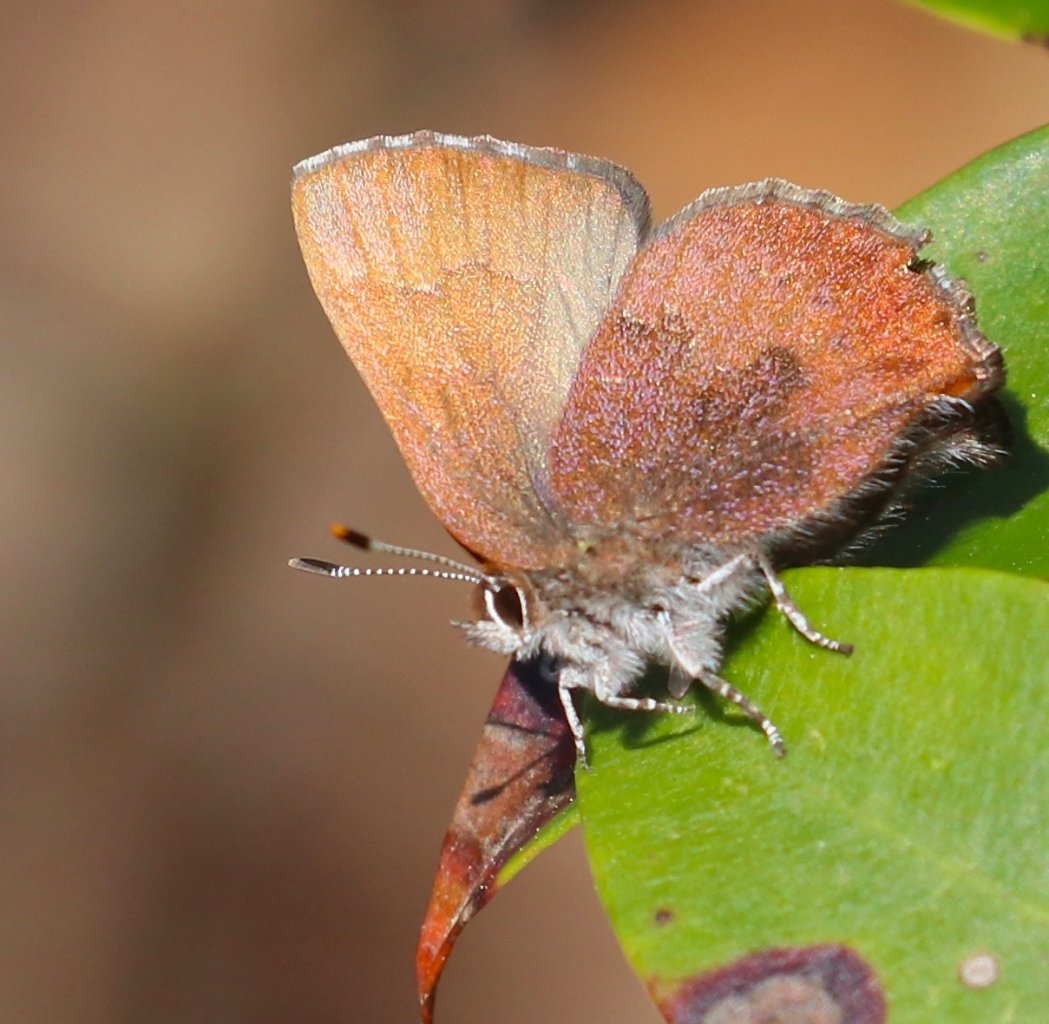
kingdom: Animalia
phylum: Arthropoda
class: Insecta
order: Lepidoptera
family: Lycaenidae
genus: Incisalia
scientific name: Incisalia irioides
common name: Brown Elfin
